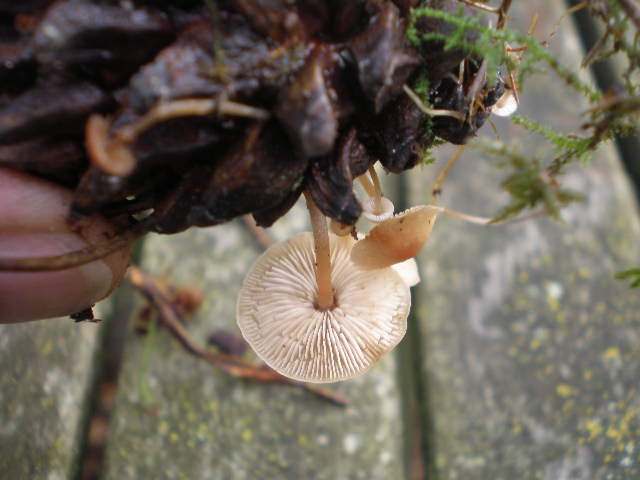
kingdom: Fungi
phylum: Basidiomycota
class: Agaricomycetes
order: Agaricales
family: Marasmiaceae
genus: Baeospora
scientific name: Baeospora myosura
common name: koglebruskhat
